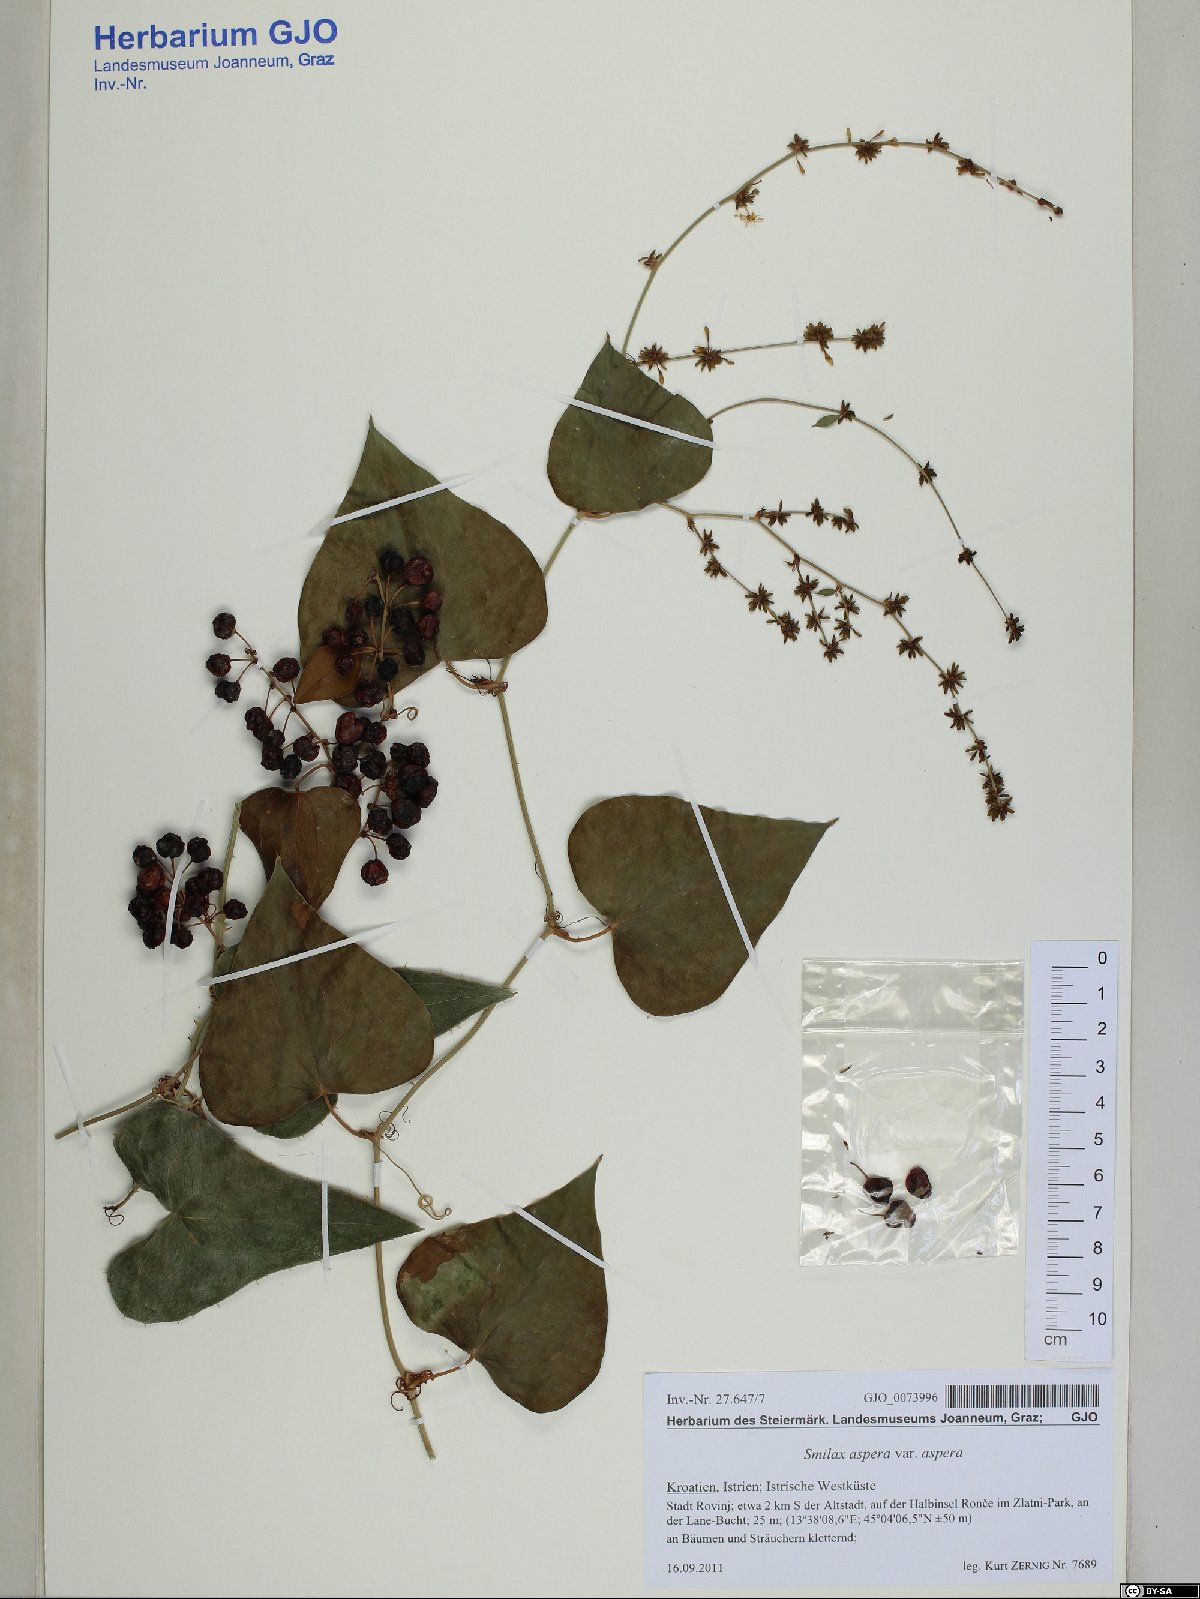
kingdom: Plantae
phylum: Tracheophyta
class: Liliopsida
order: Liliales
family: Smilacaceae
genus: Smilax
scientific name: Smilax aspera
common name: Common smilax
